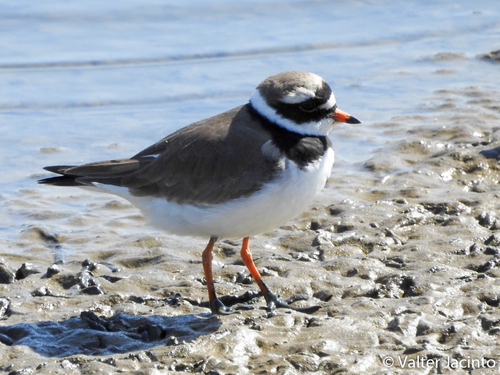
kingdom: Animalia
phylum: Chordata
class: Aves
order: Charadriiformes
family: Charadriidae
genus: Charadrius
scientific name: Charadrius hiaticula
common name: Common ringed plover
